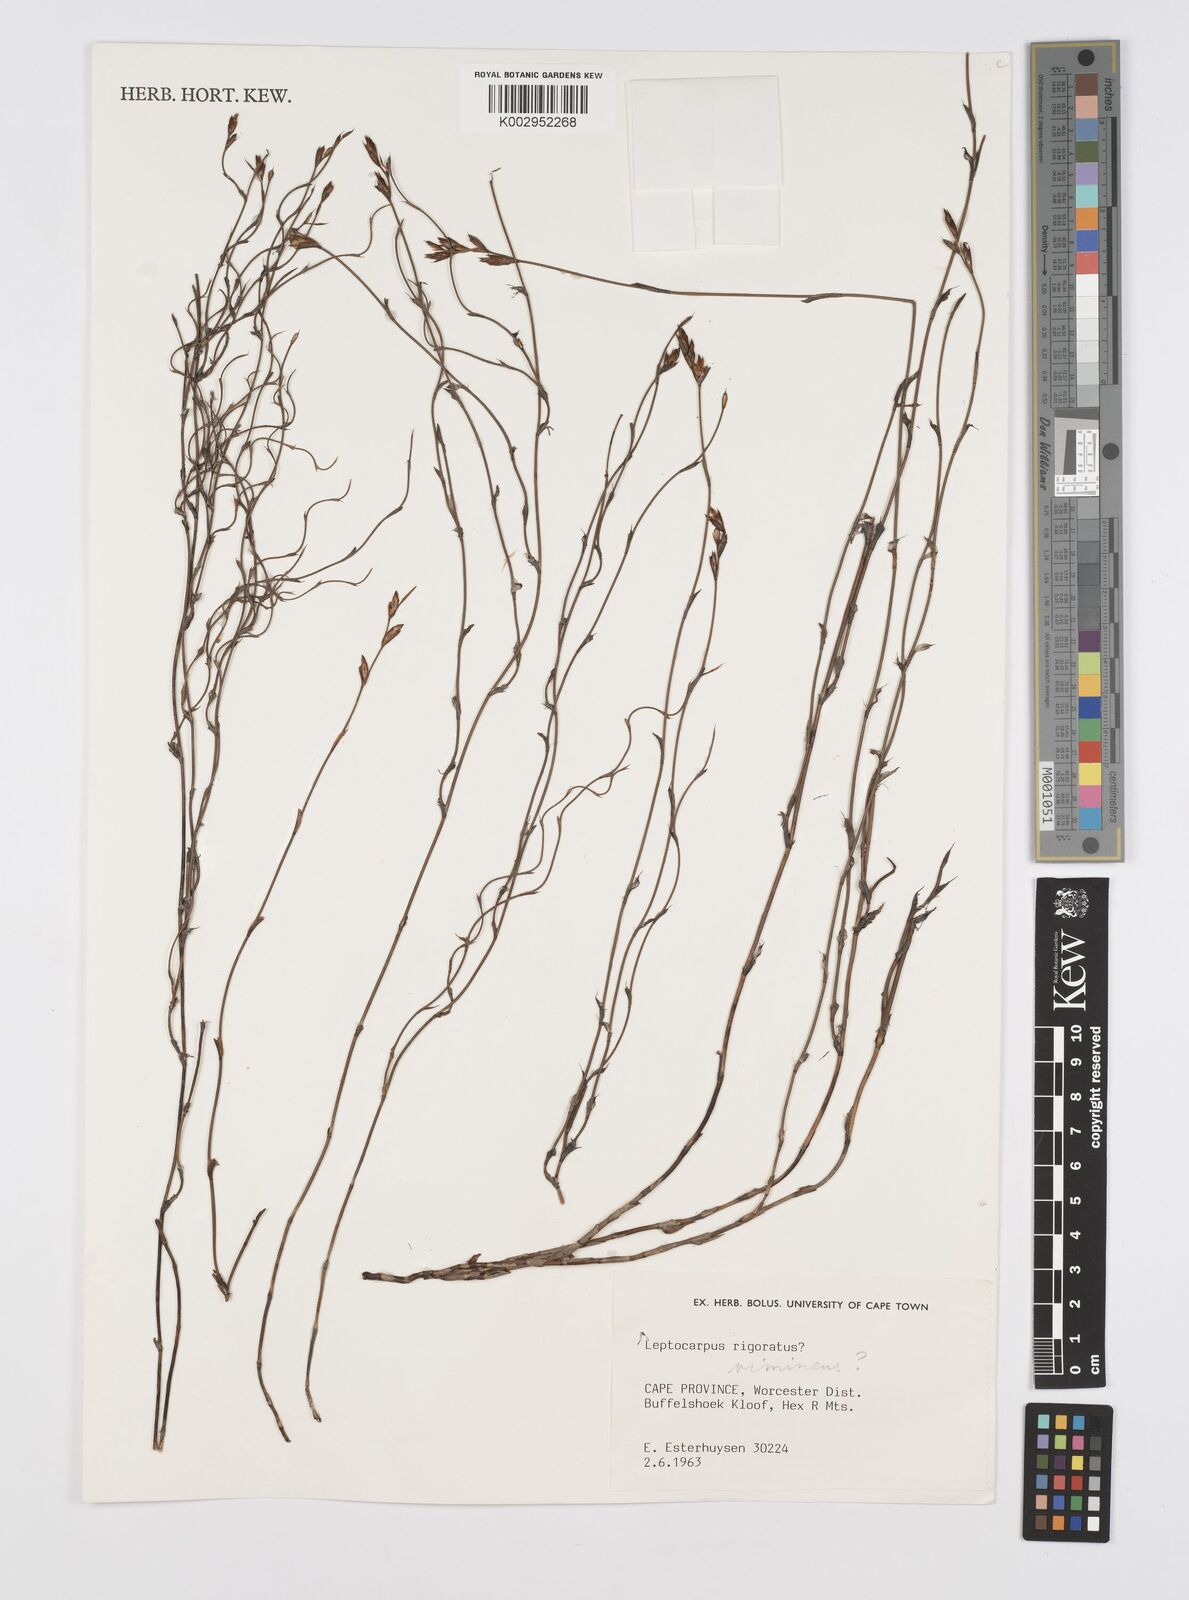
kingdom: Plantae
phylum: Tracheophyta
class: Liliopsida
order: Poales
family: Restionaceae
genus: Restio
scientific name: Restio vimineus
